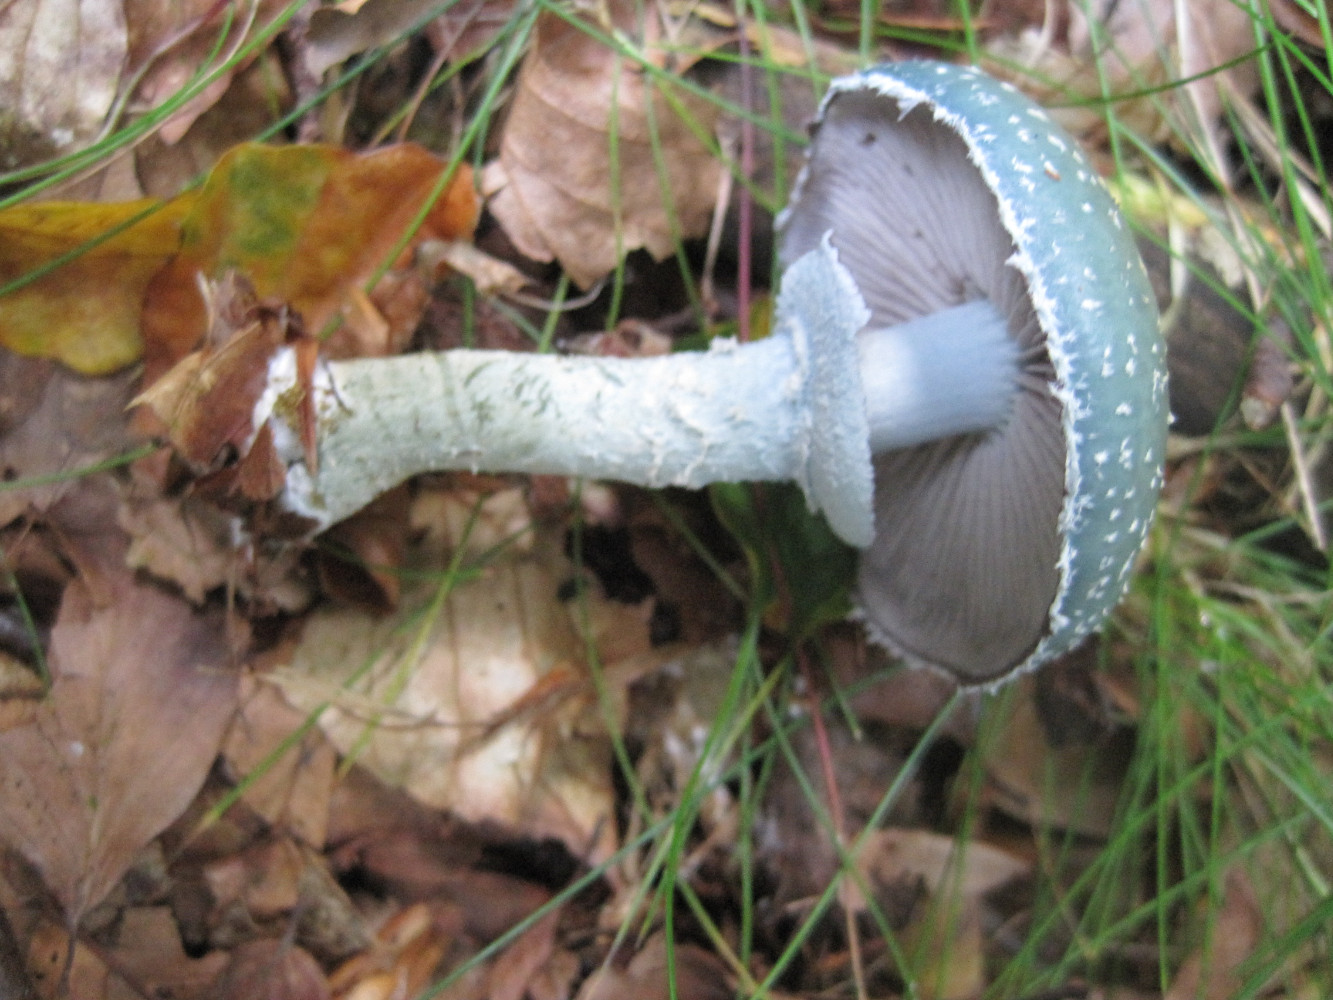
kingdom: Fungi
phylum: Basidiomycota
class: Agaricomycetes
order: Agaricales
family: Strophariaceae
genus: Stropharia
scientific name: Stropharia aeruginosa
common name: spanskgrøn bredblad
